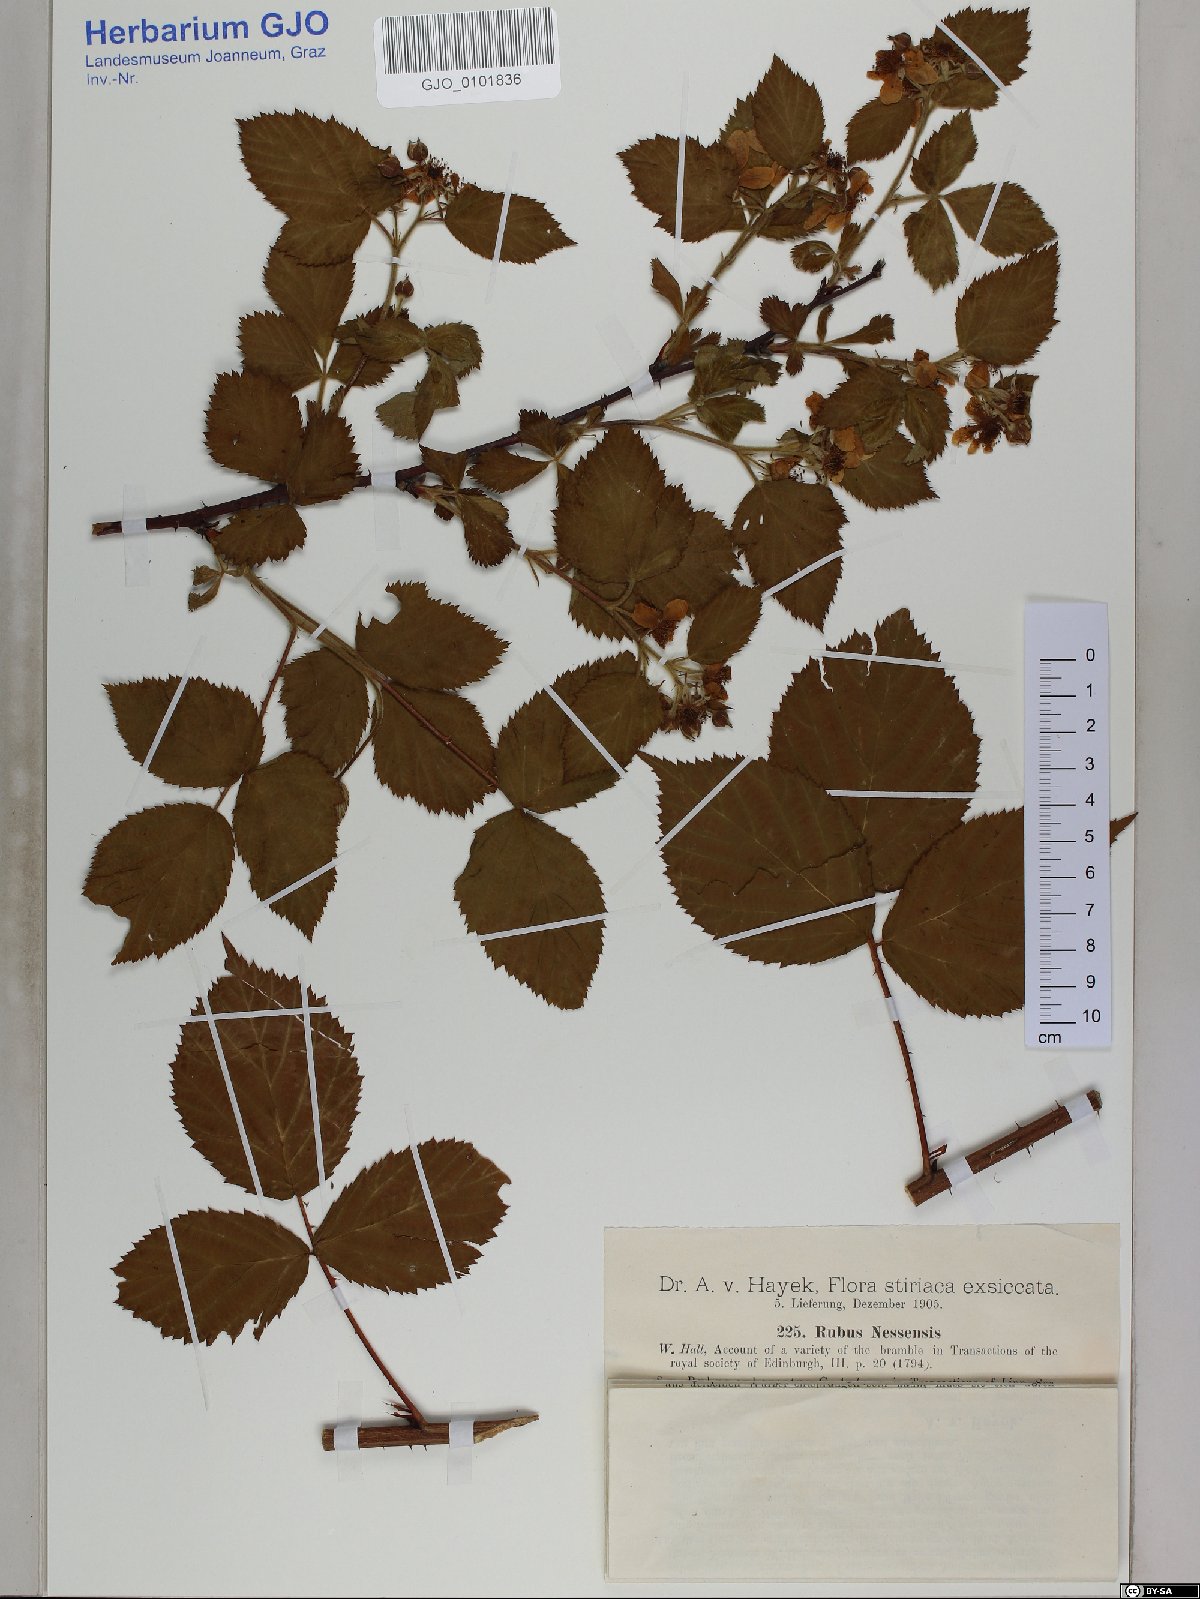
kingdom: Plantae
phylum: Tracheophyta
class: Magnoliopsida
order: Rosales
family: Rosaceae
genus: Rubus
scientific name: Rubus polonicus
